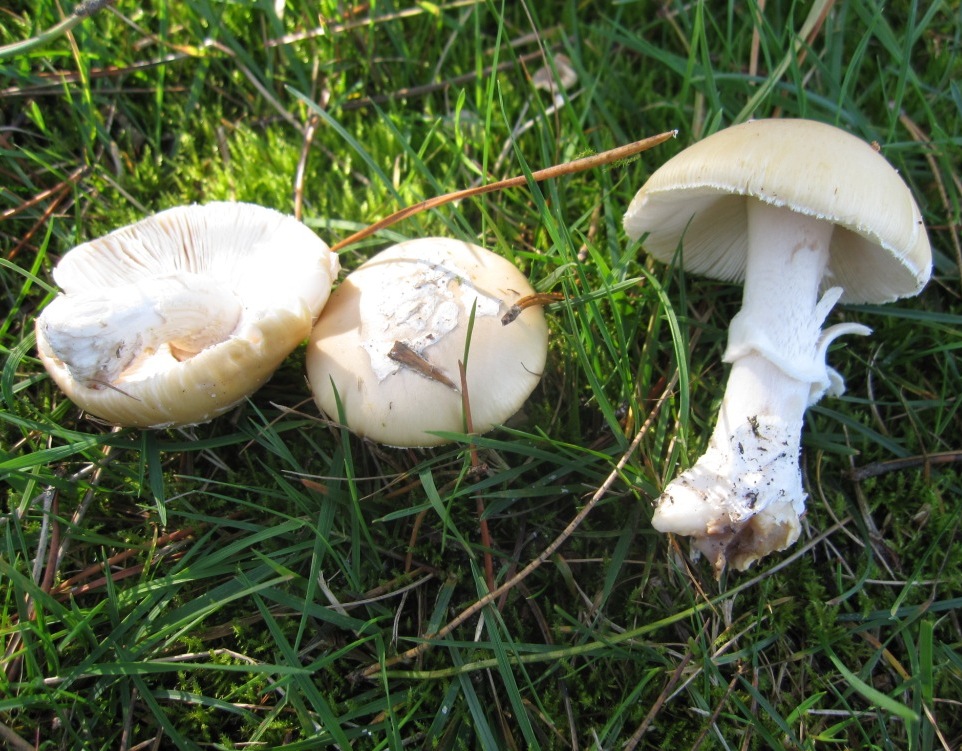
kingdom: Fungi
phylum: Basidiomycota
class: Agaricomycetes
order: Agaricales
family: Amanitaceae
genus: Amanita
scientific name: Amanita gemmata
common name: okkergul fluesvamp
